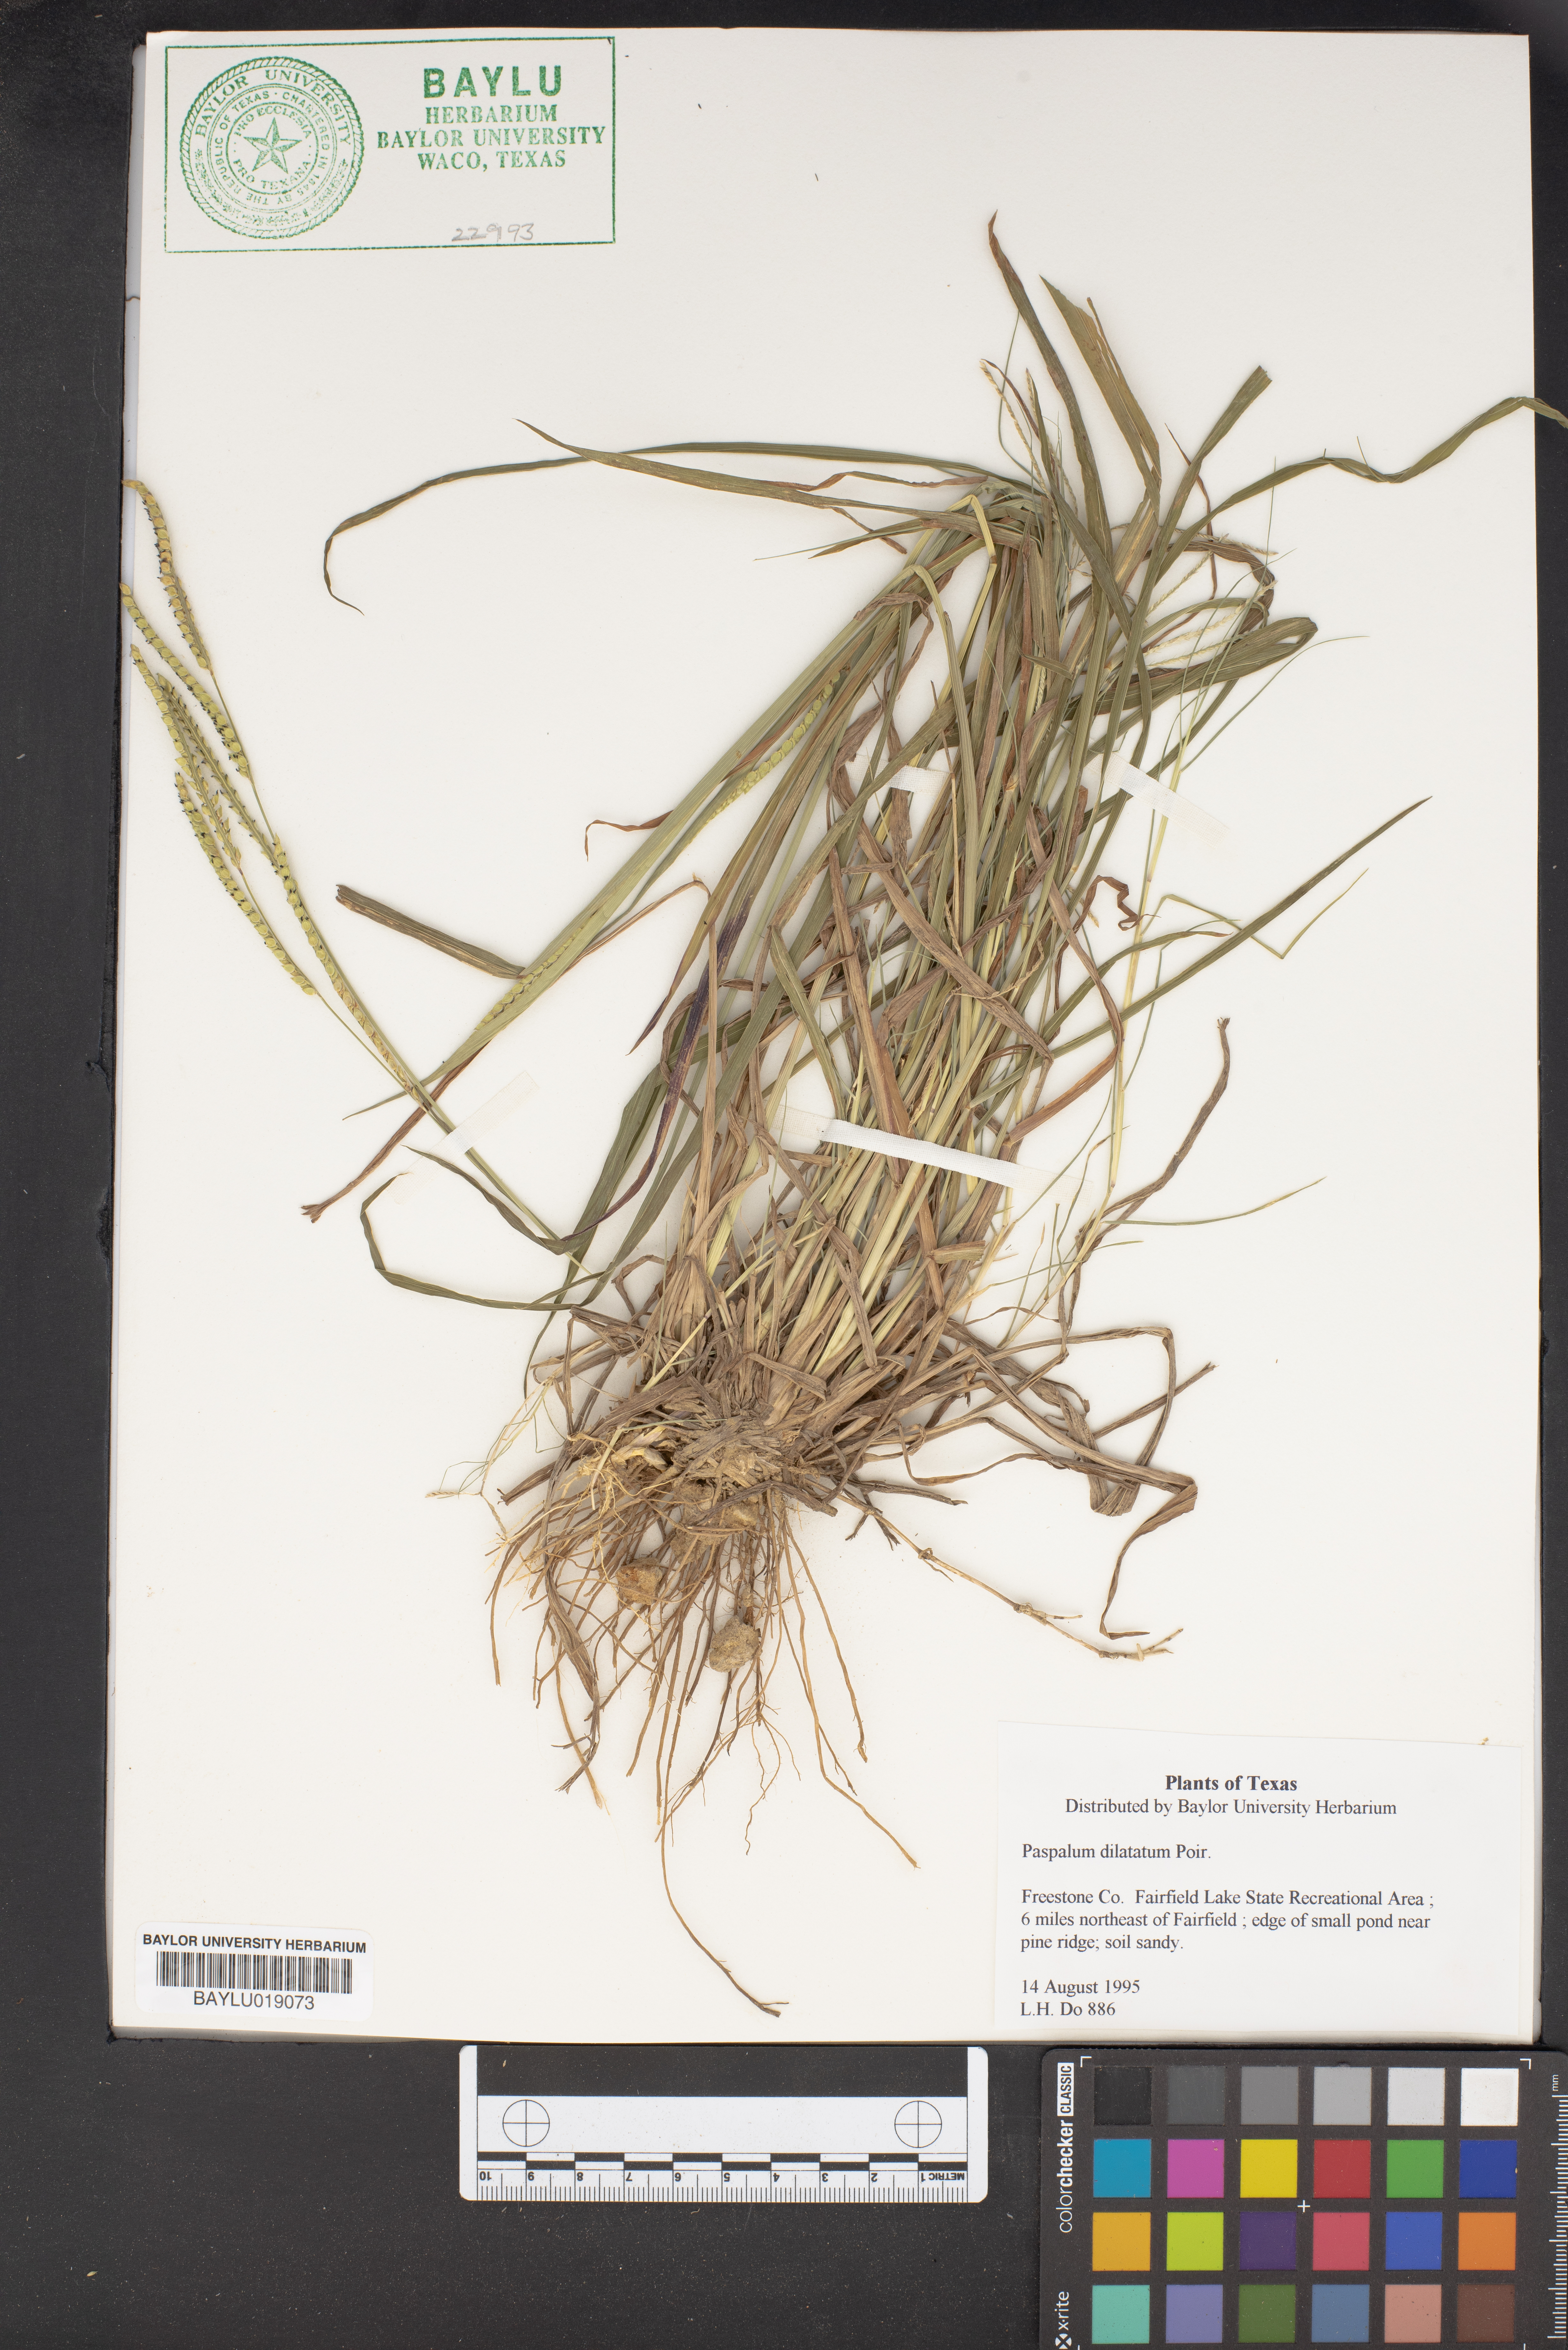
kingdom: Plantae
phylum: Tracheophyta
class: Liliopsida
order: Poales
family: Poaceae
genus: Paspalum
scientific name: Paspalum dilatatum
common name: Dallisgrass
